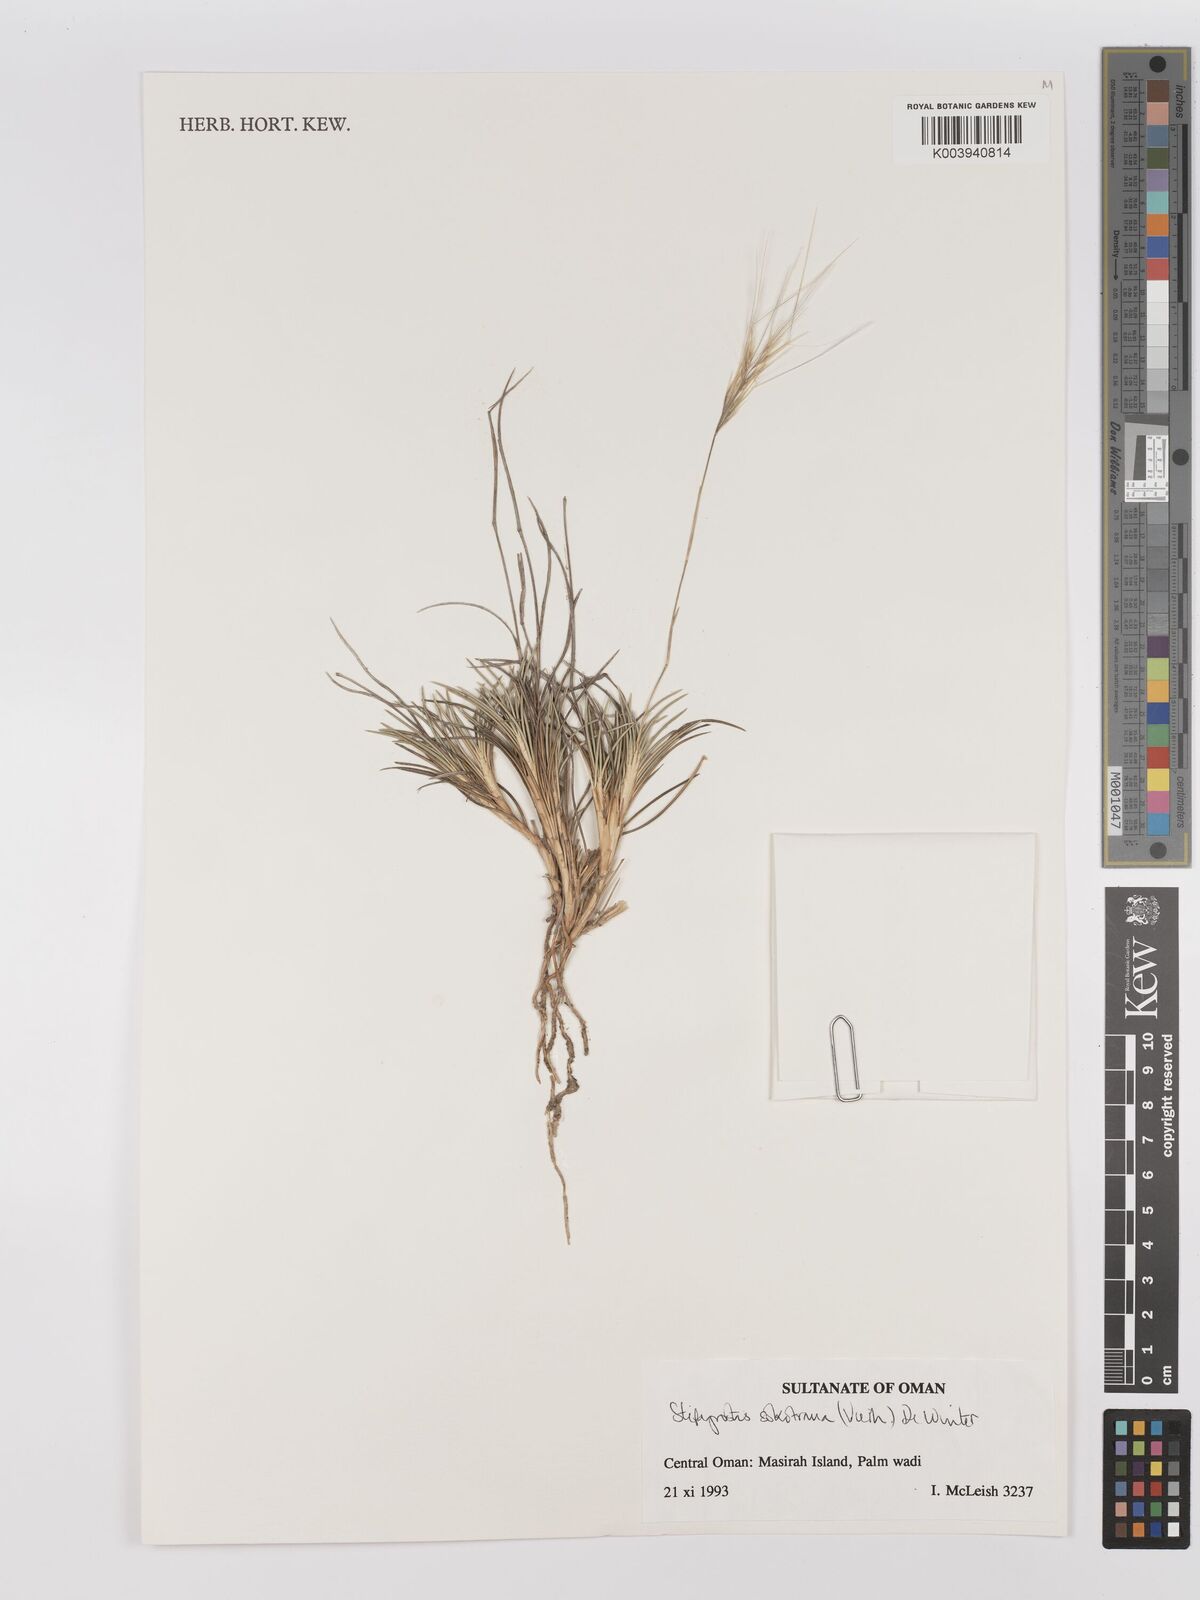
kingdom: Plantae
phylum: Tracheophyta
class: Liliopsida
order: Poales
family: Poaceae
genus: Stipagrostis
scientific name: Stipagrostis sokotrana
